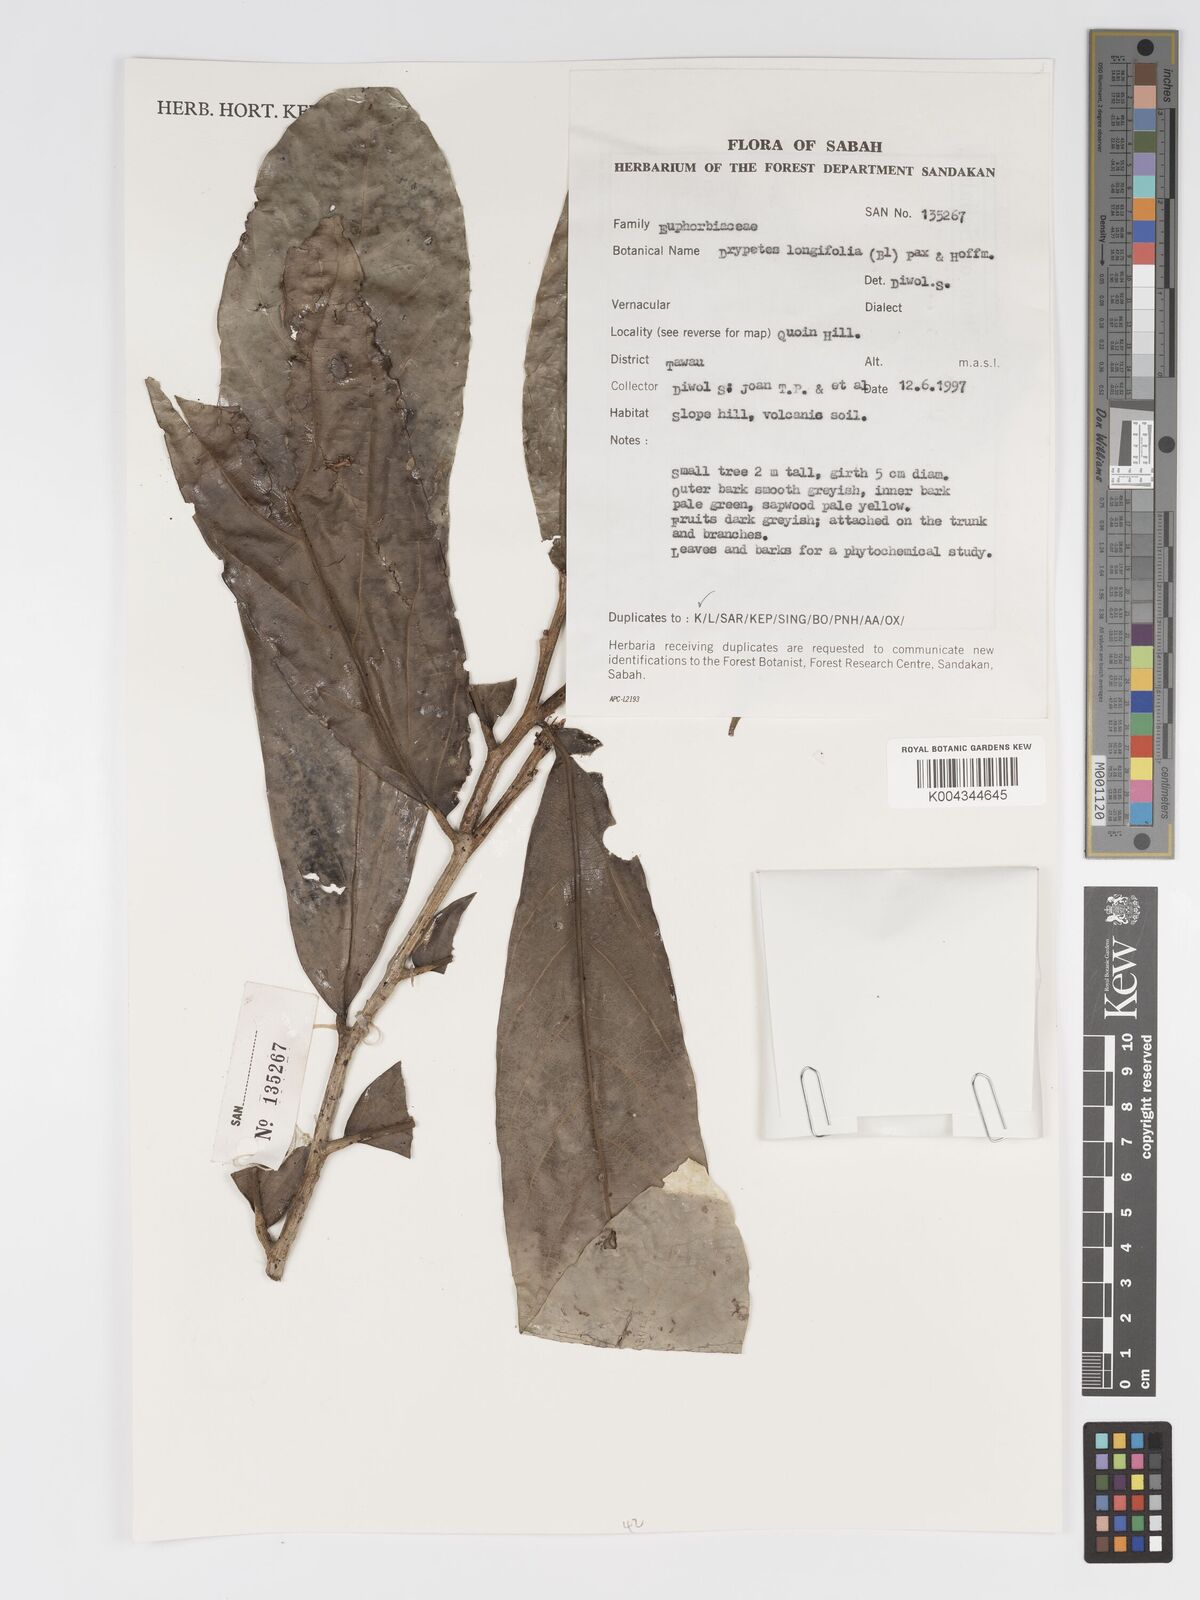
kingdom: Plantae
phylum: Tracheophyta
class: Magnoliopsida
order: Malpighiales
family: Putranjivaceae
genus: Drypetes
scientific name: Drypetes longifolia
